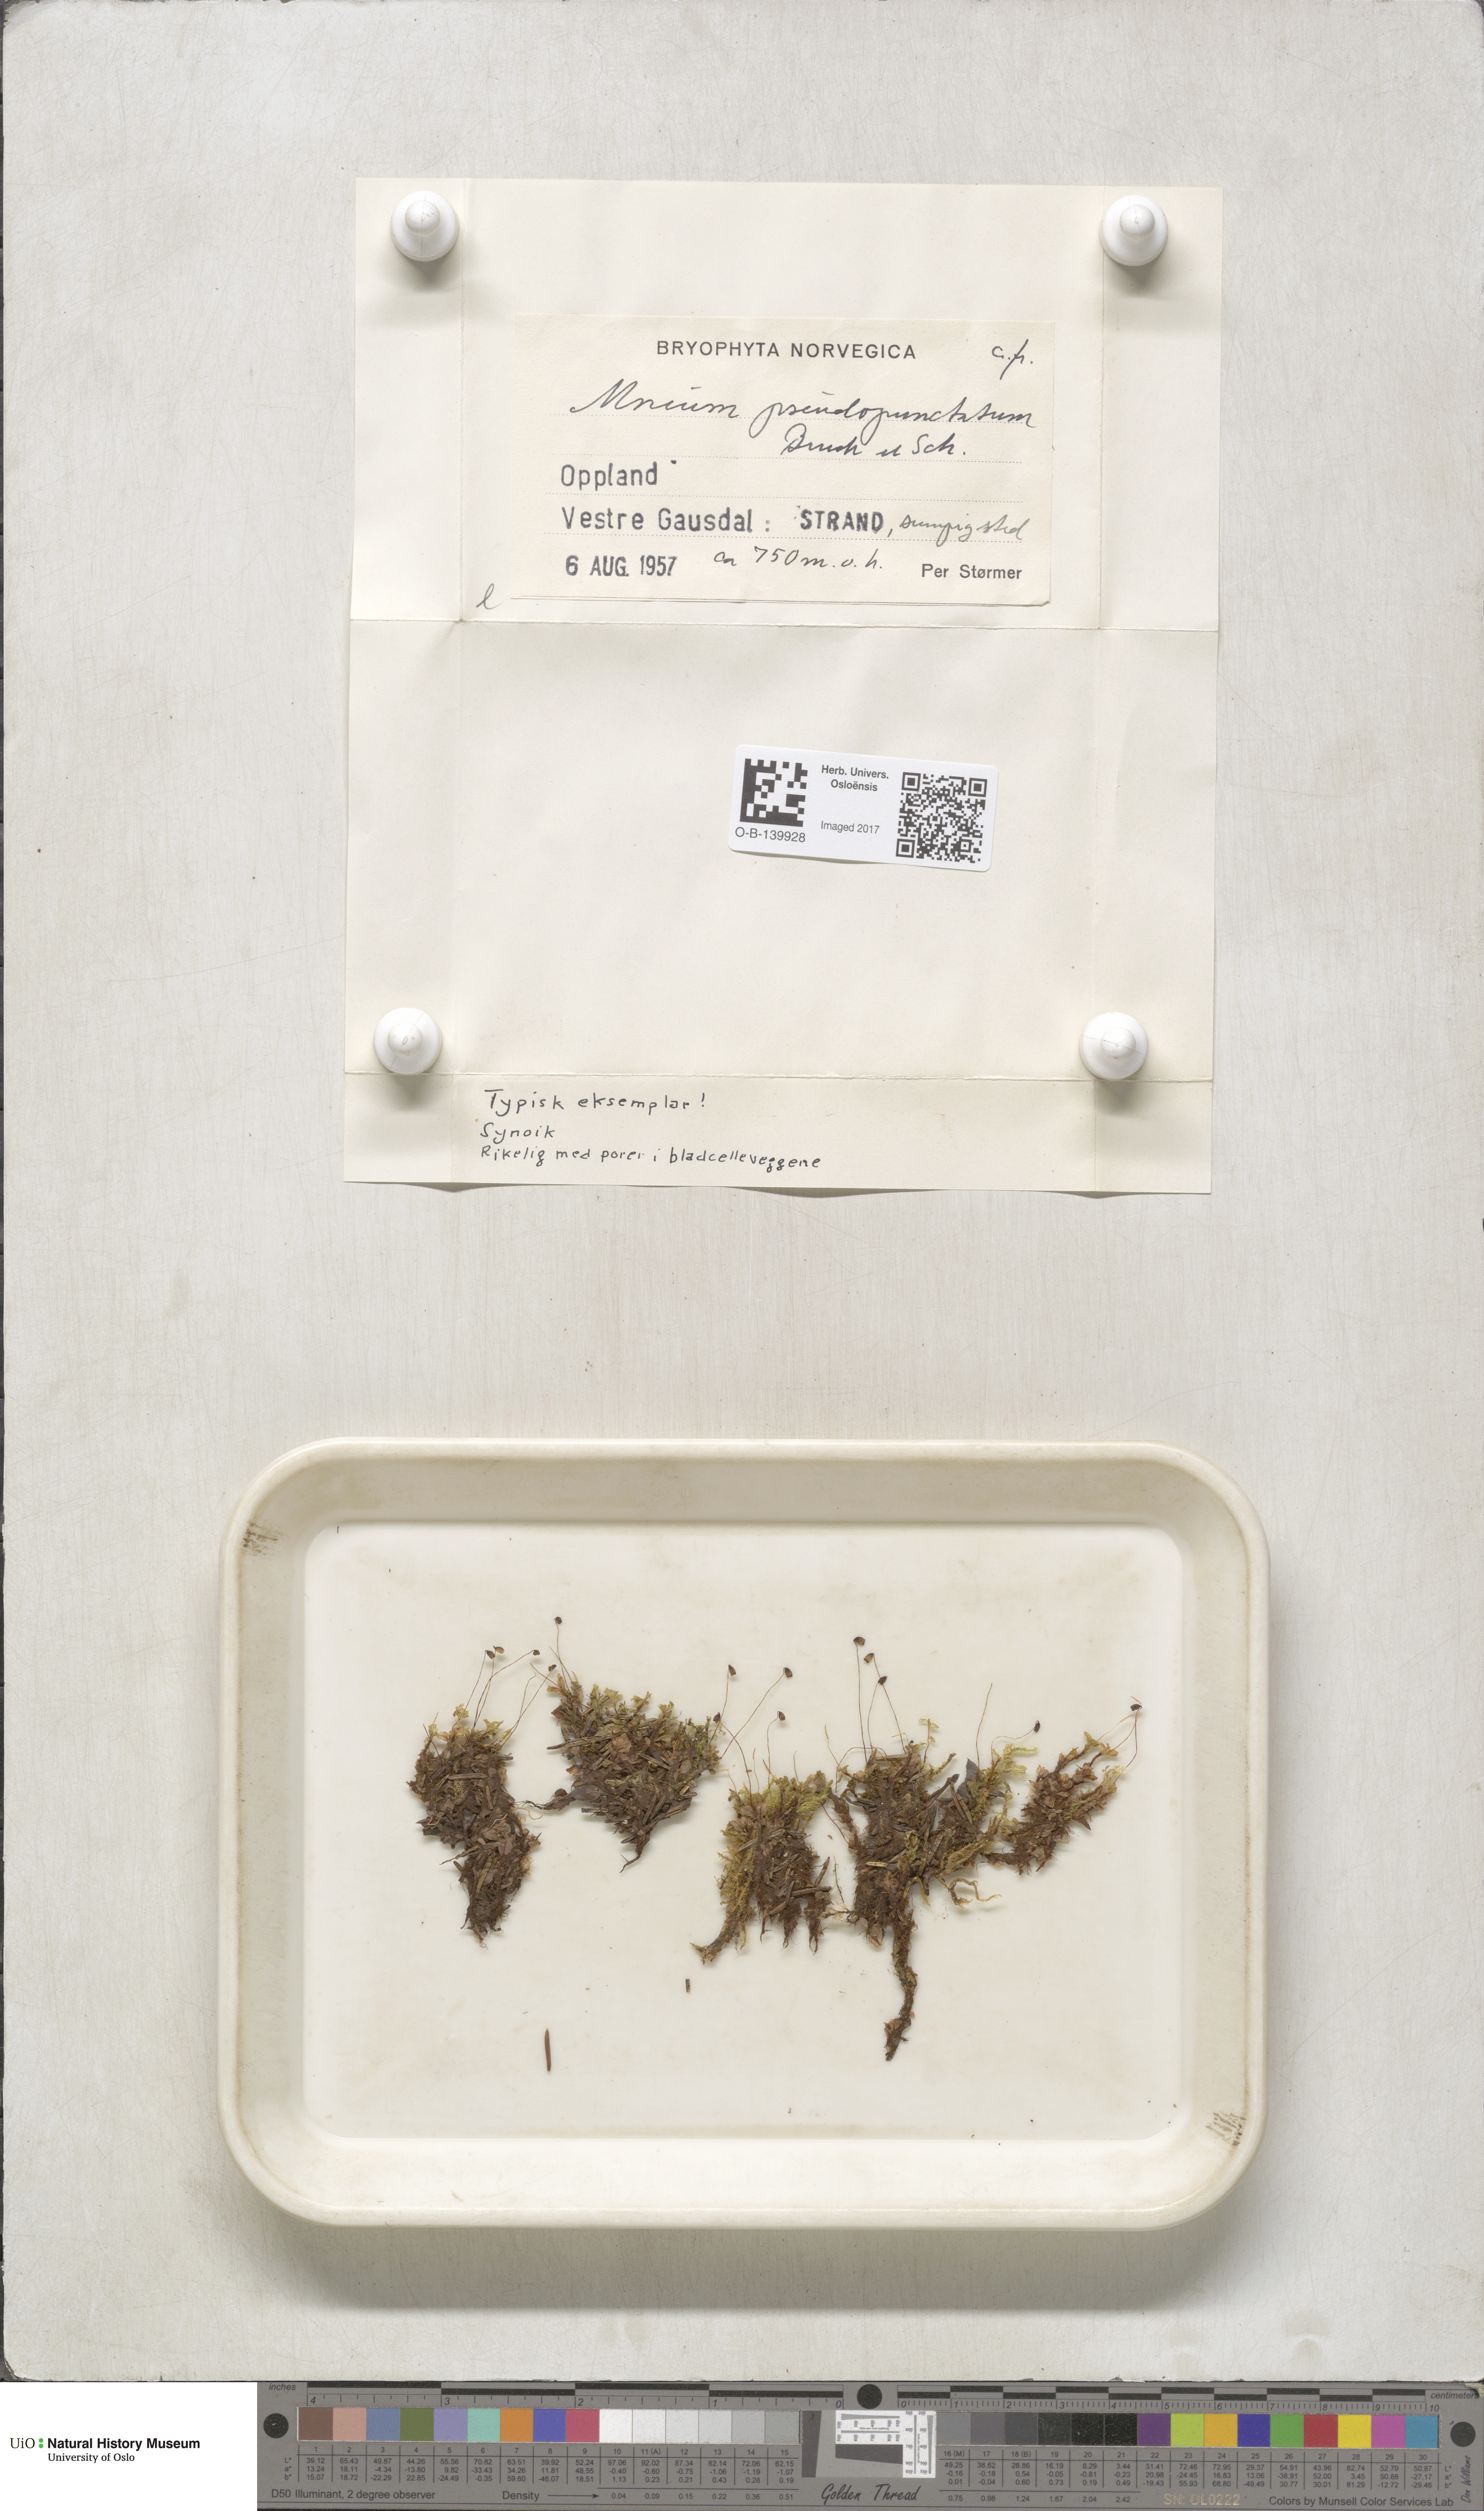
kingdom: Plantae
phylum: Bryophyta
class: Bryopsida
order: Bryales
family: Mniaceae
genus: Rhizomnium
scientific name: Rhizomnium pseudopunctatum
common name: Felted leafy moss
